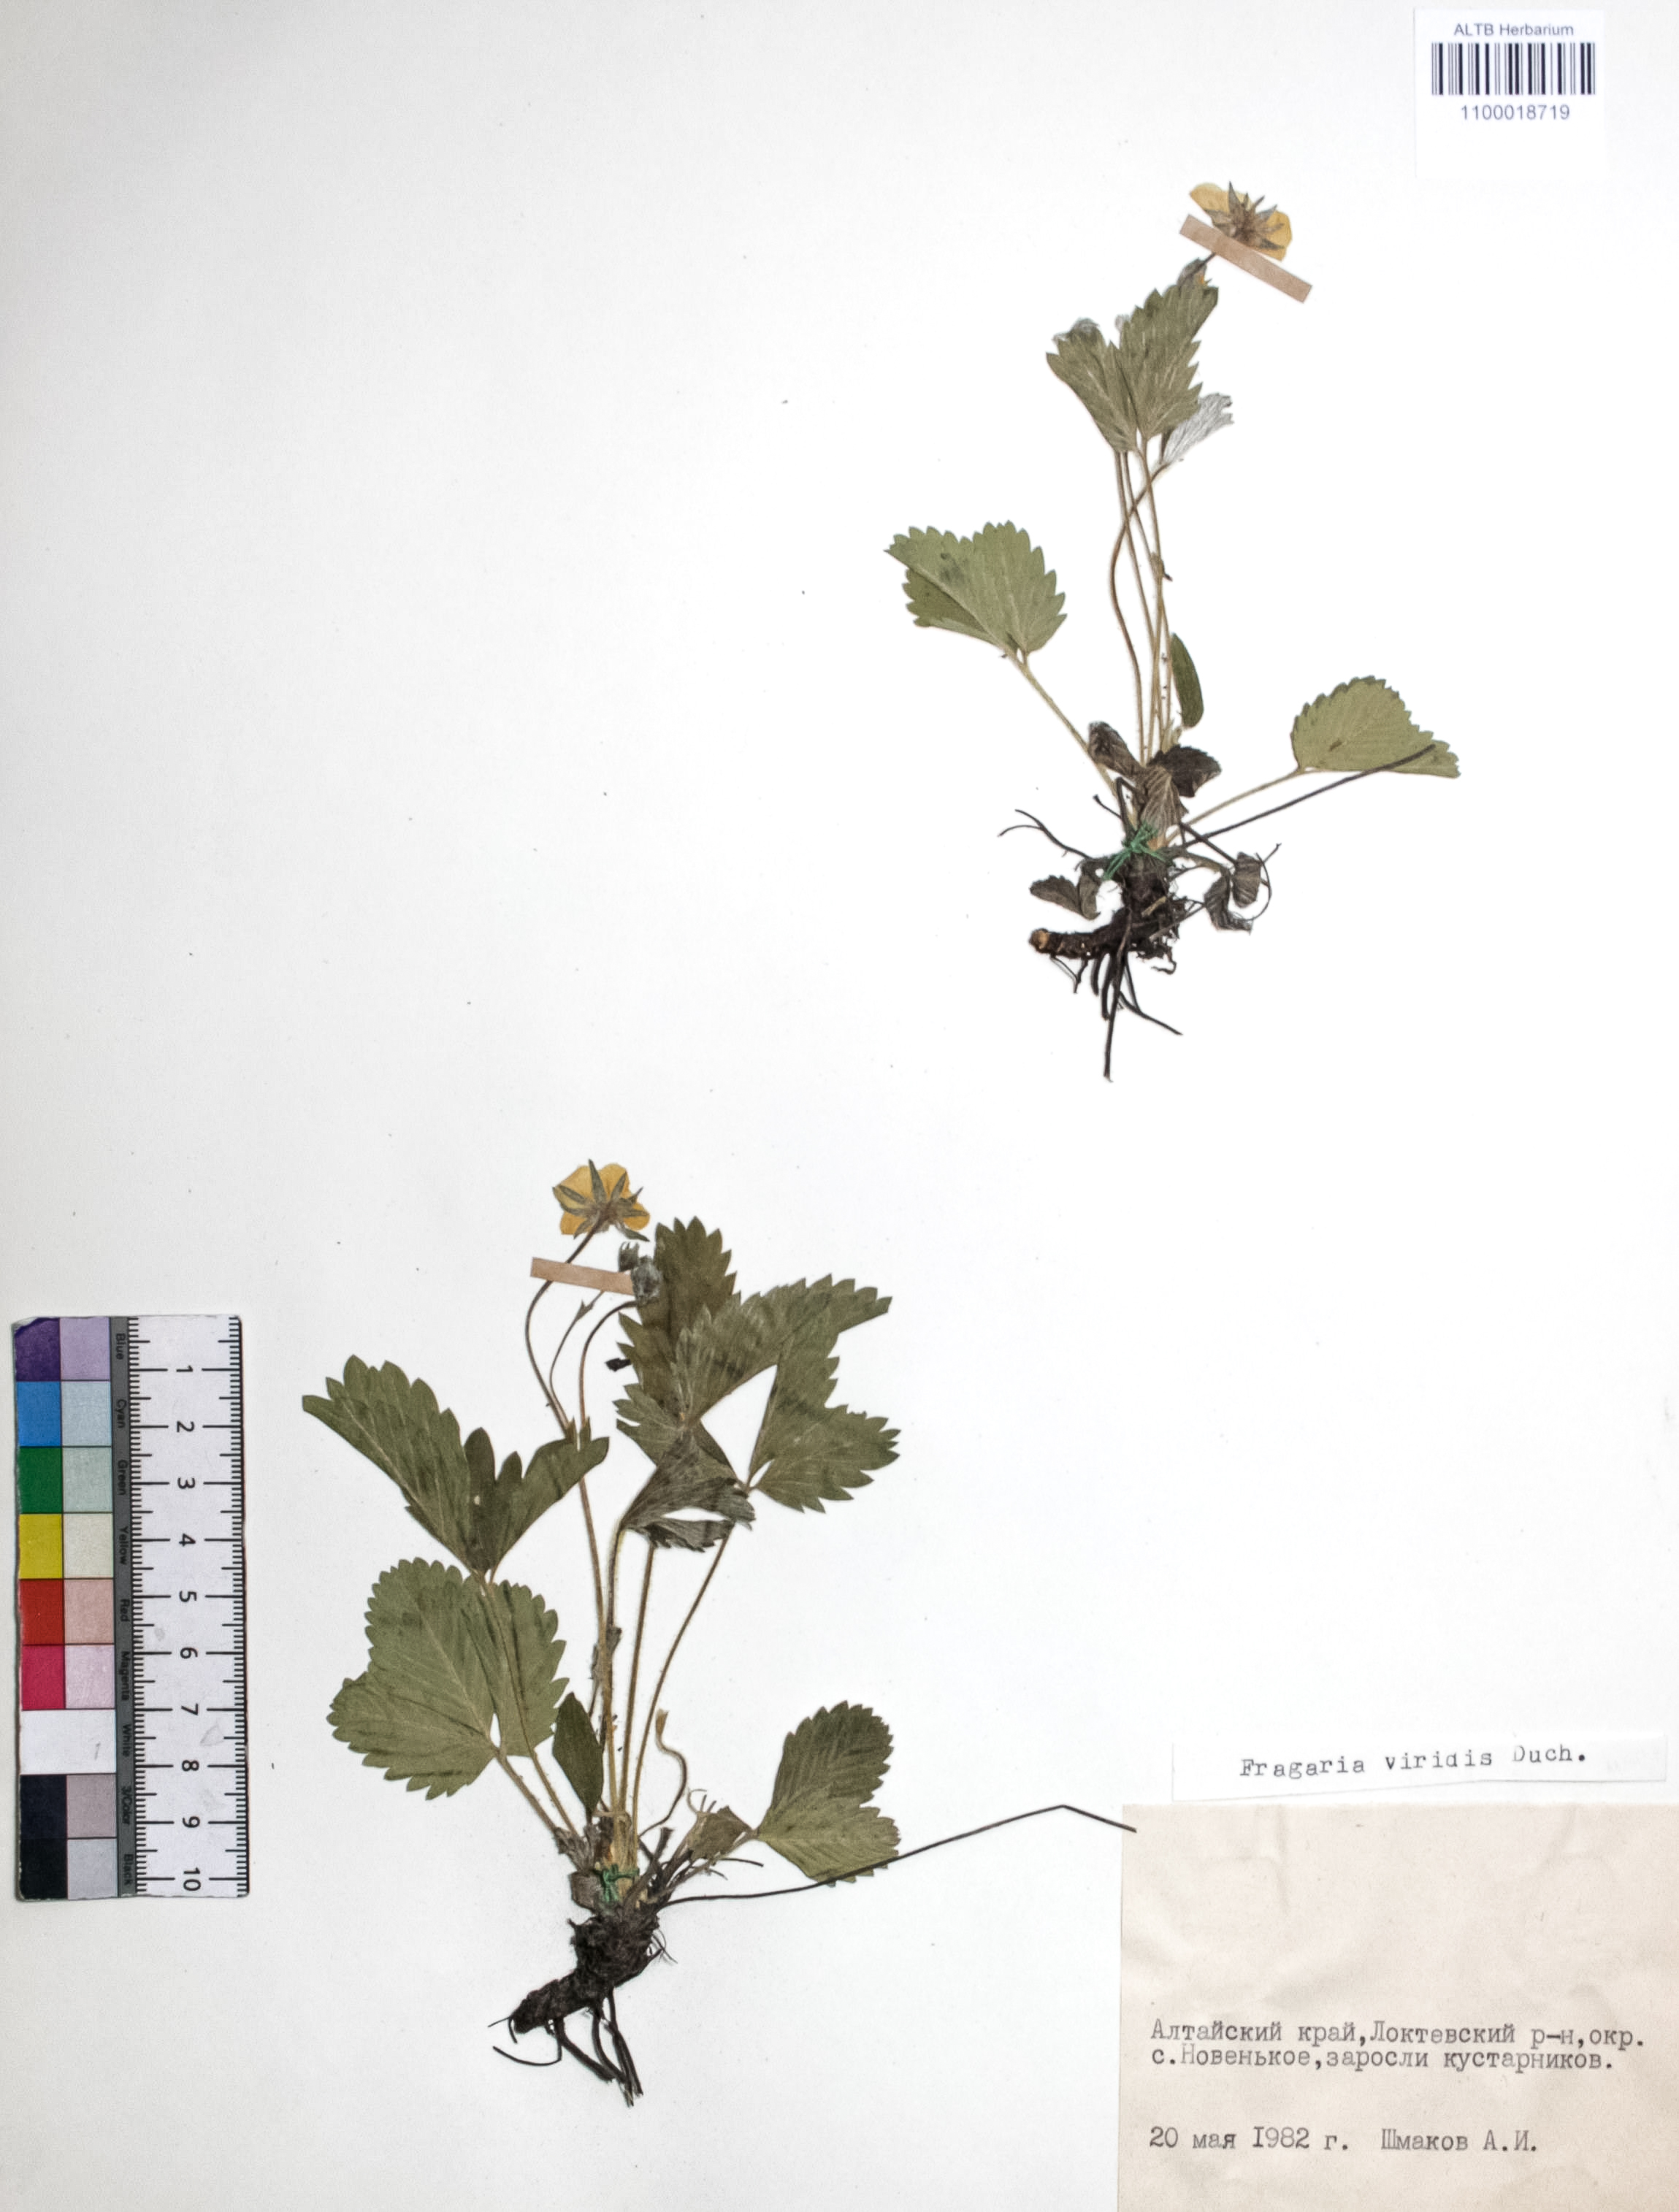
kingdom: Plantae
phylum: Tracheophyta
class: Magnoliopsida
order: Rosales
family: Rosaceae
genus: Fragaria
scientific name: Fragaria viridis
